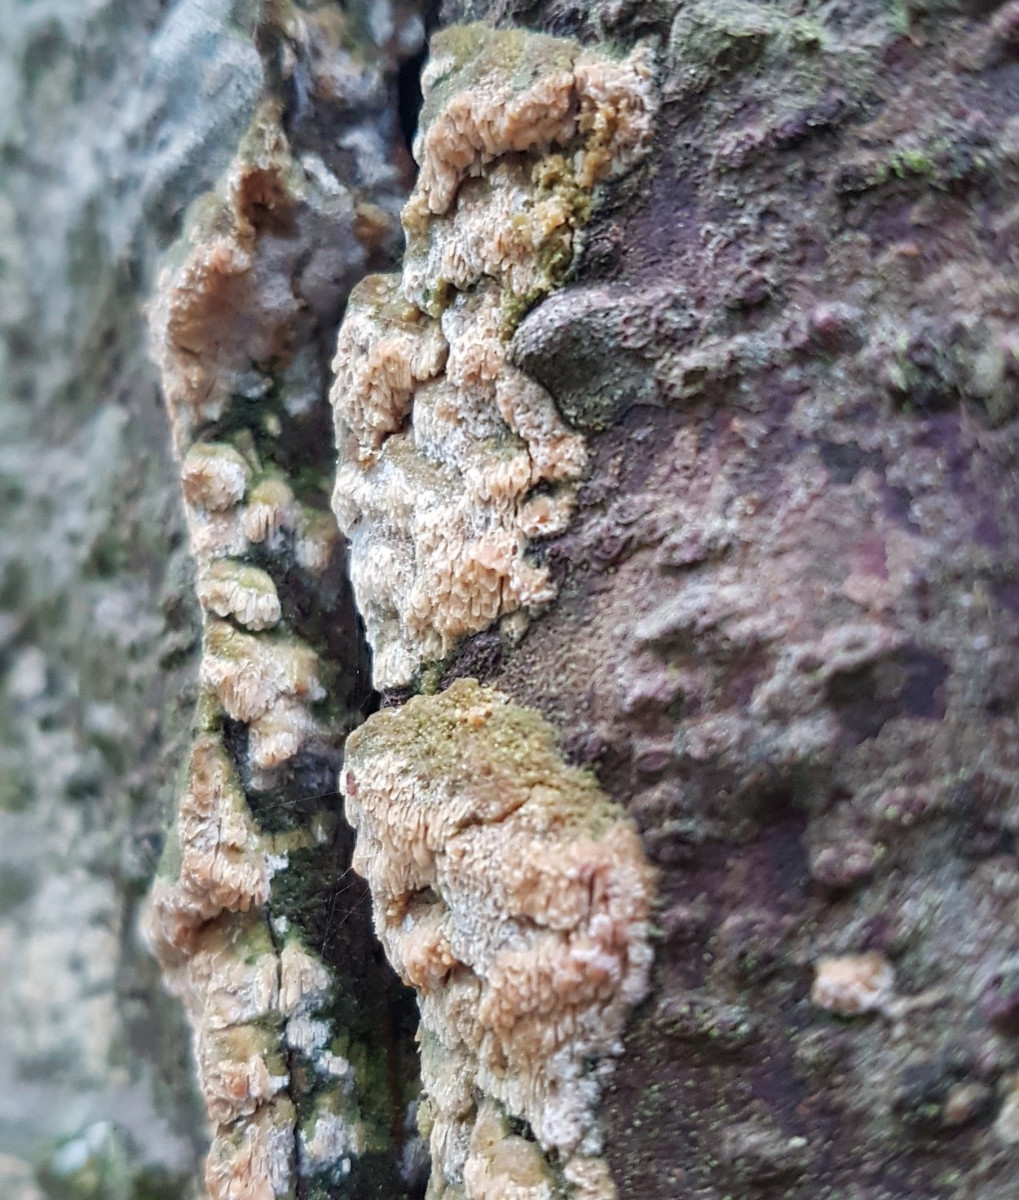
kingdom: Fungi
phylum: Basidiomycota
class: Agaricomycetes
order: Polyporales
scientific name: Polyporales
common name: poresvampordenen
